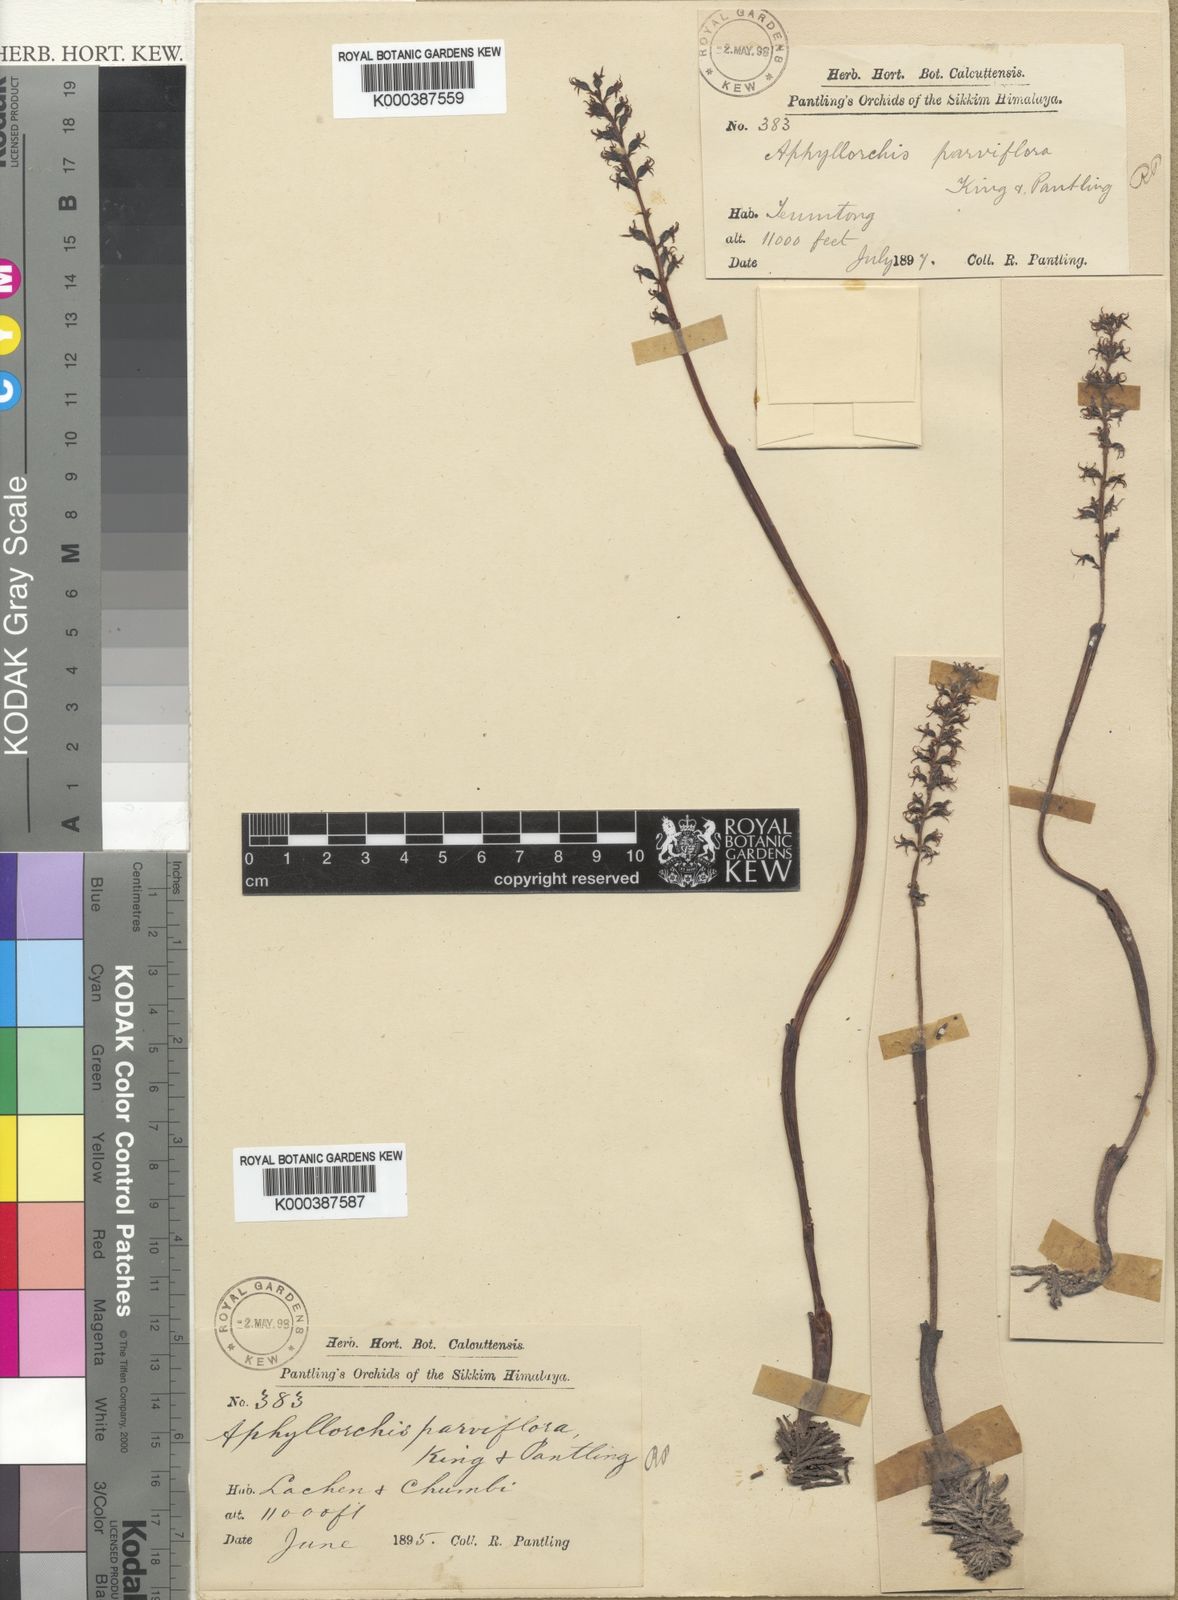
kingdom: Plantae
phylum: Tracheophyta
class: Liliopsida
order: Asparagales
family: Orchidaceae
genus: Spiranthes
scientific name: Spiranthes australis
